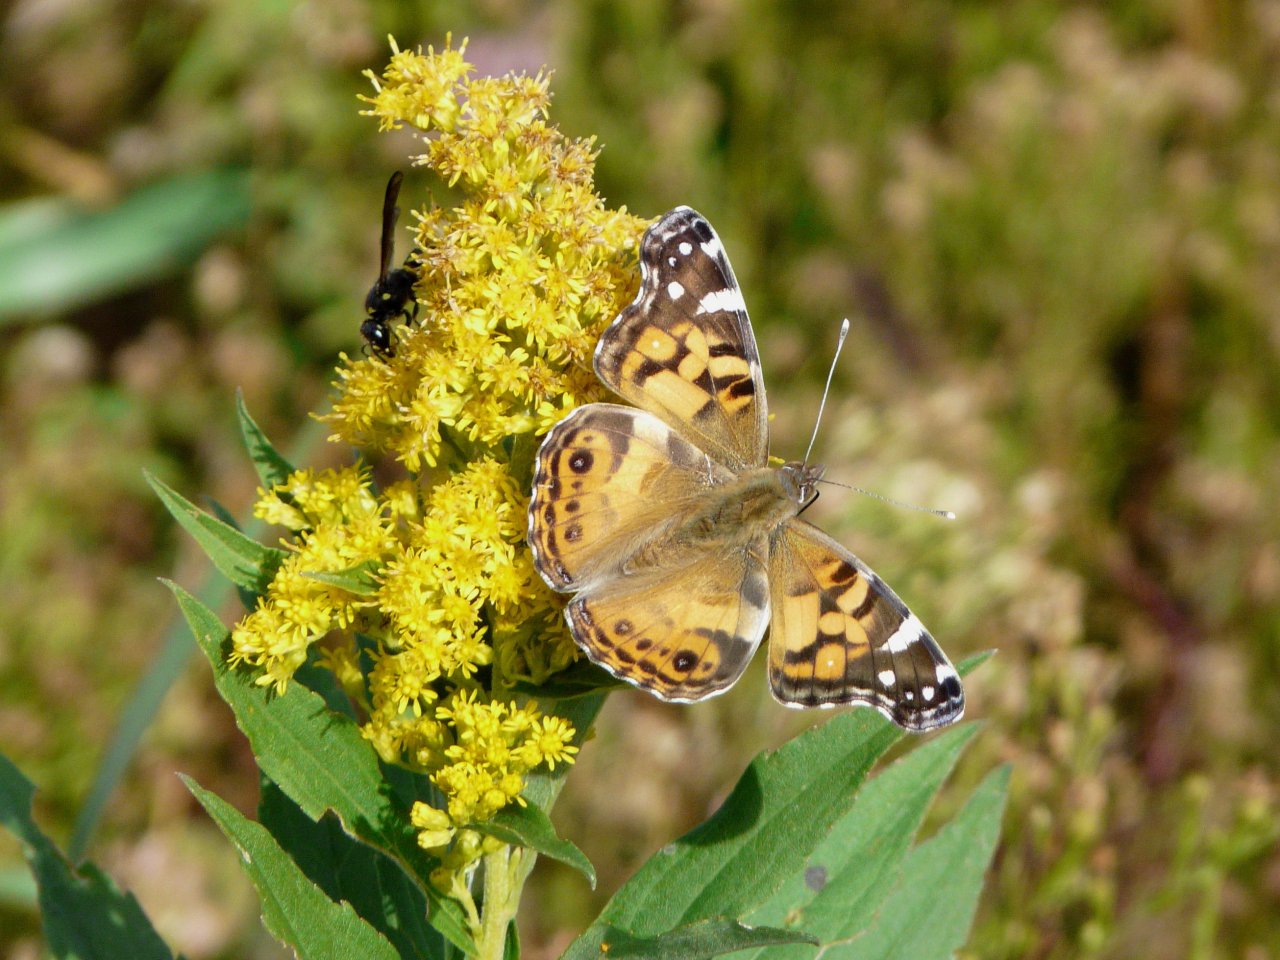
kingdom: Animalia
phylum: Arthropoda
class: Insecta
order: Lepidoptera
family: Nymphalidae
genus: Vanessa
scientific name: Vanessa virginiensis
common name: American Lady
